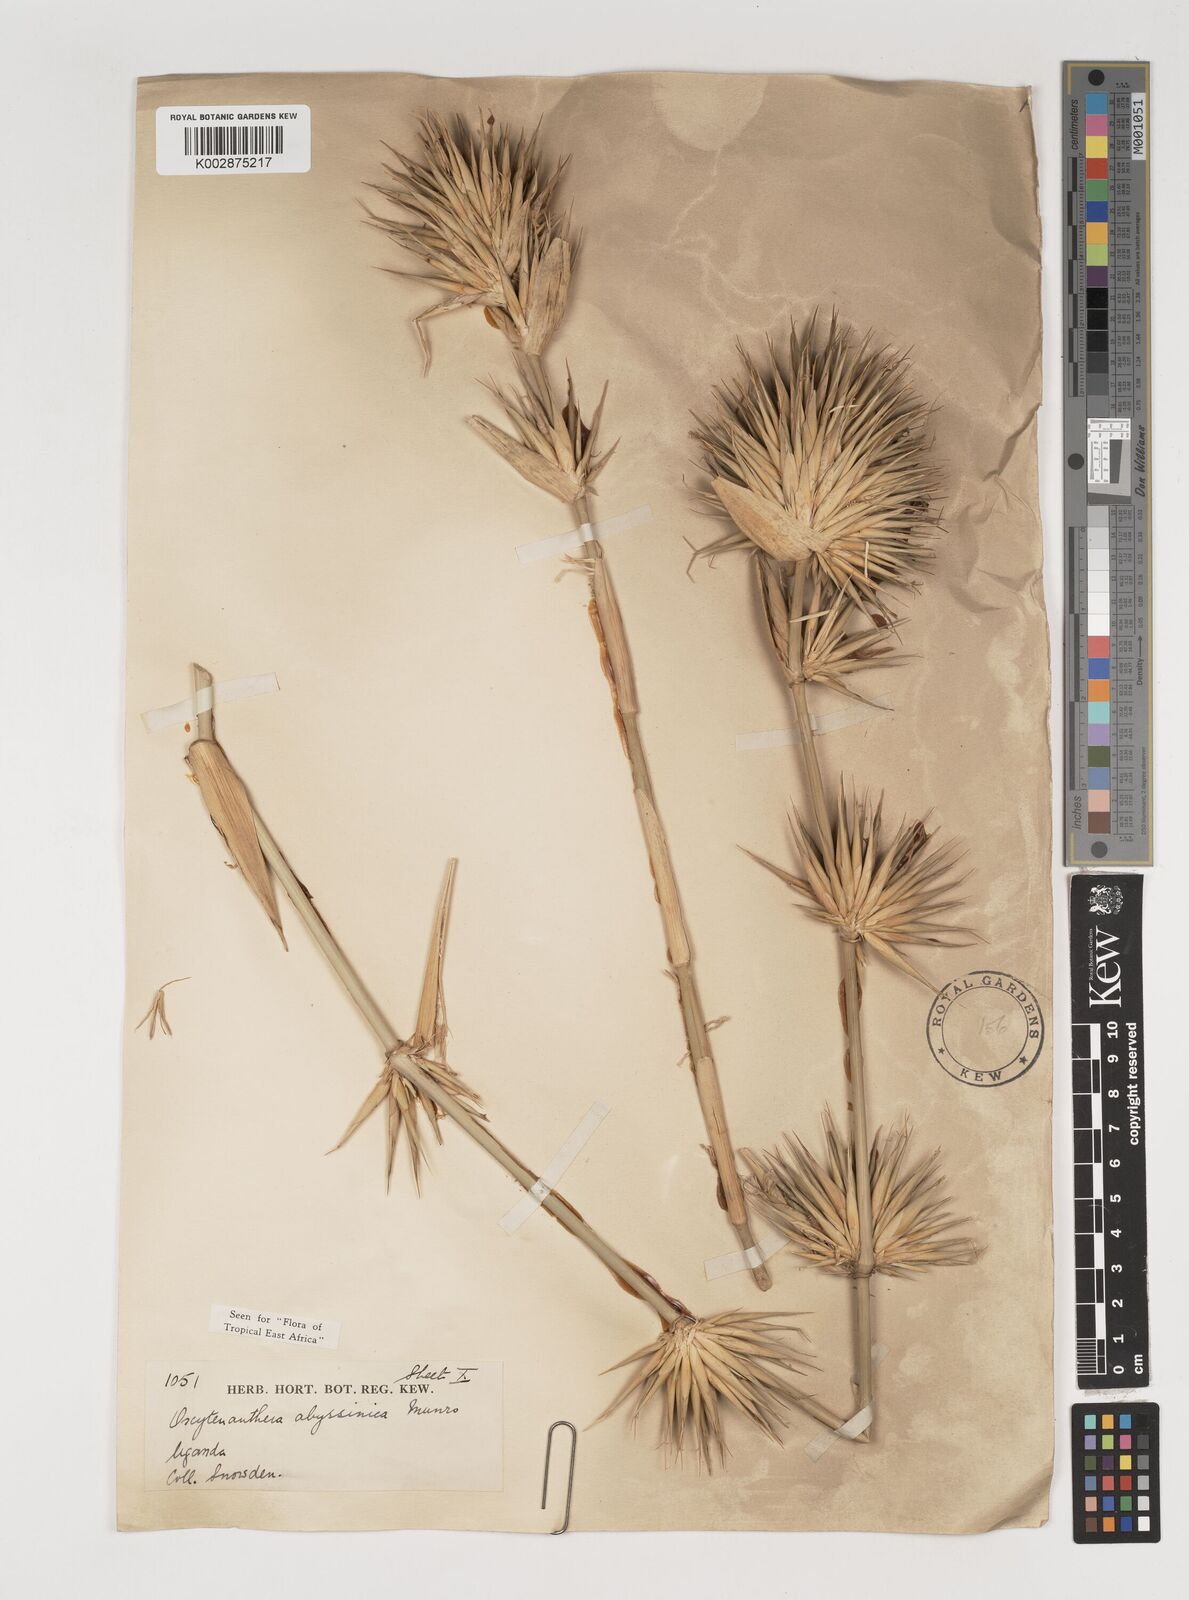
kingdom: Plantae
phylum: Tracheophyta
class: Liliopsida
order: Poales
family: Poaceae
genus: Oxytenanthera
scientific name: Oxytenanthera abyssinica
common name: Wine bamboo
